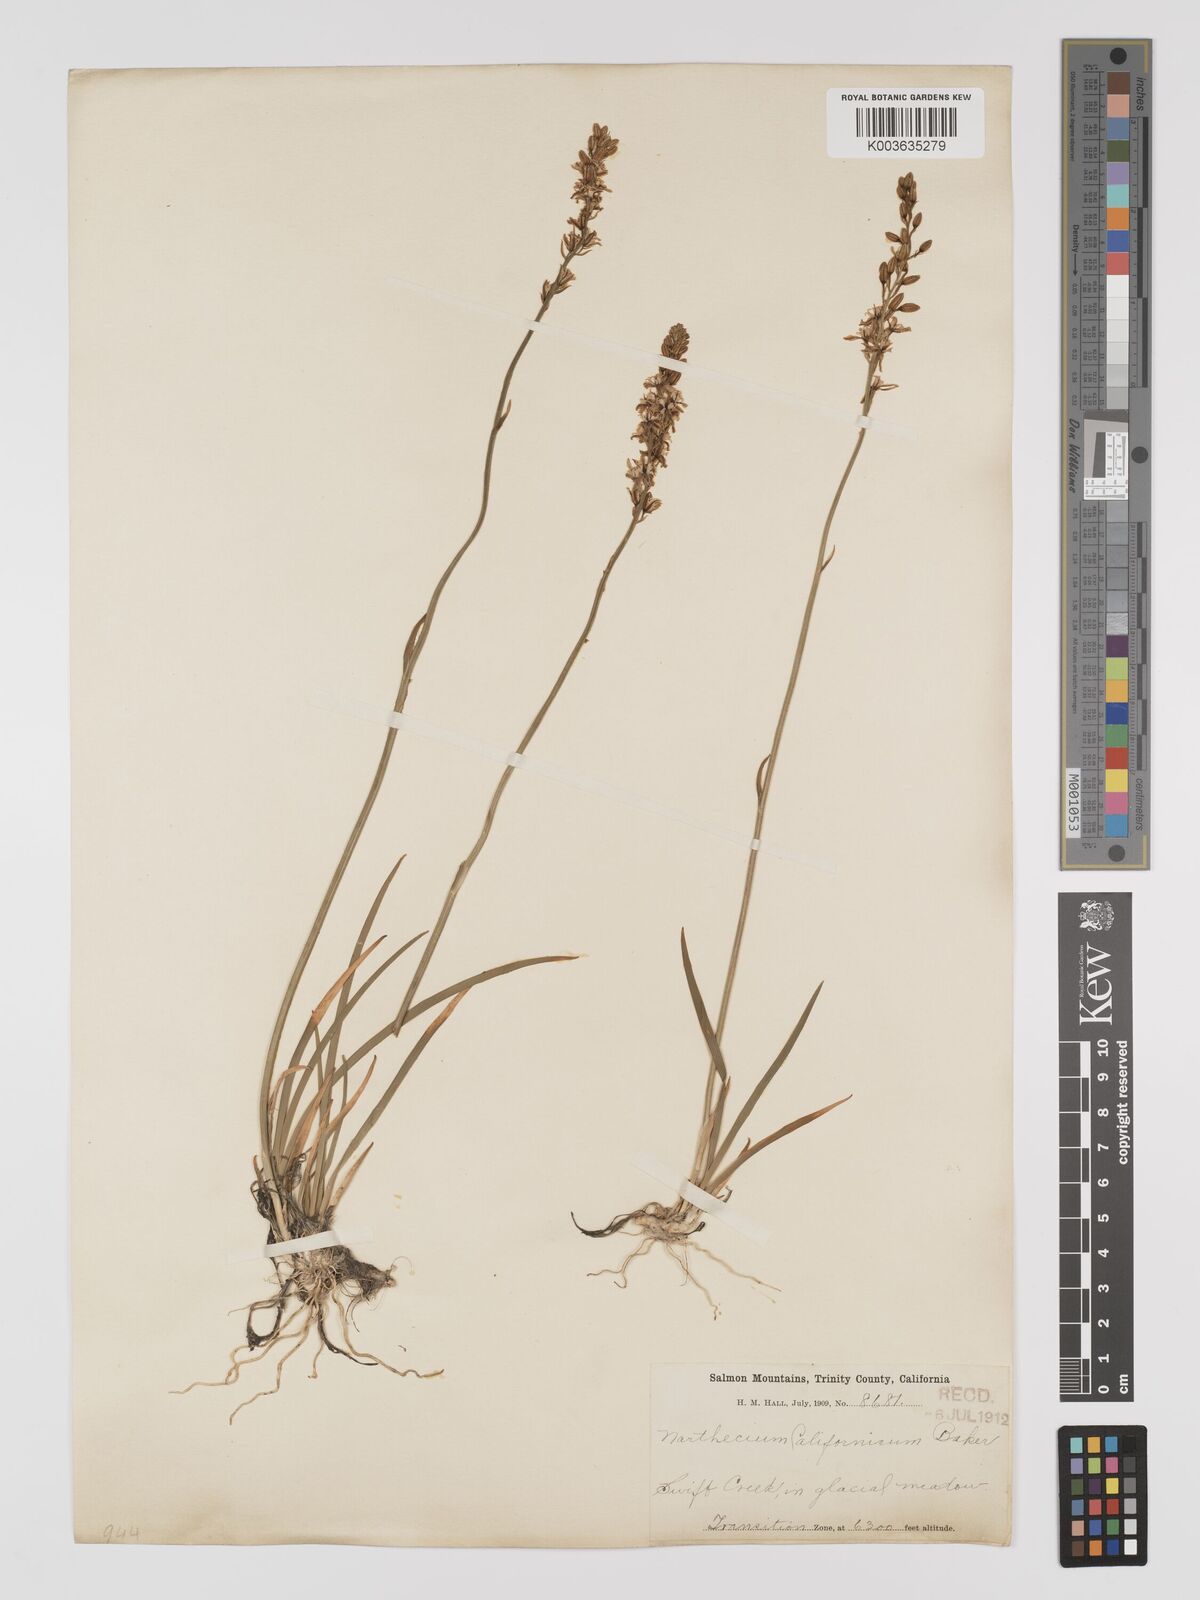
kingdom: Plantae
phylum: Tracheophyta
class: Liliopsida
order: Dioscoreales
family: Nartheciaceae
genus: Narthecium
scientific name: Narthecium californicum
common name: California bog-asphodel
